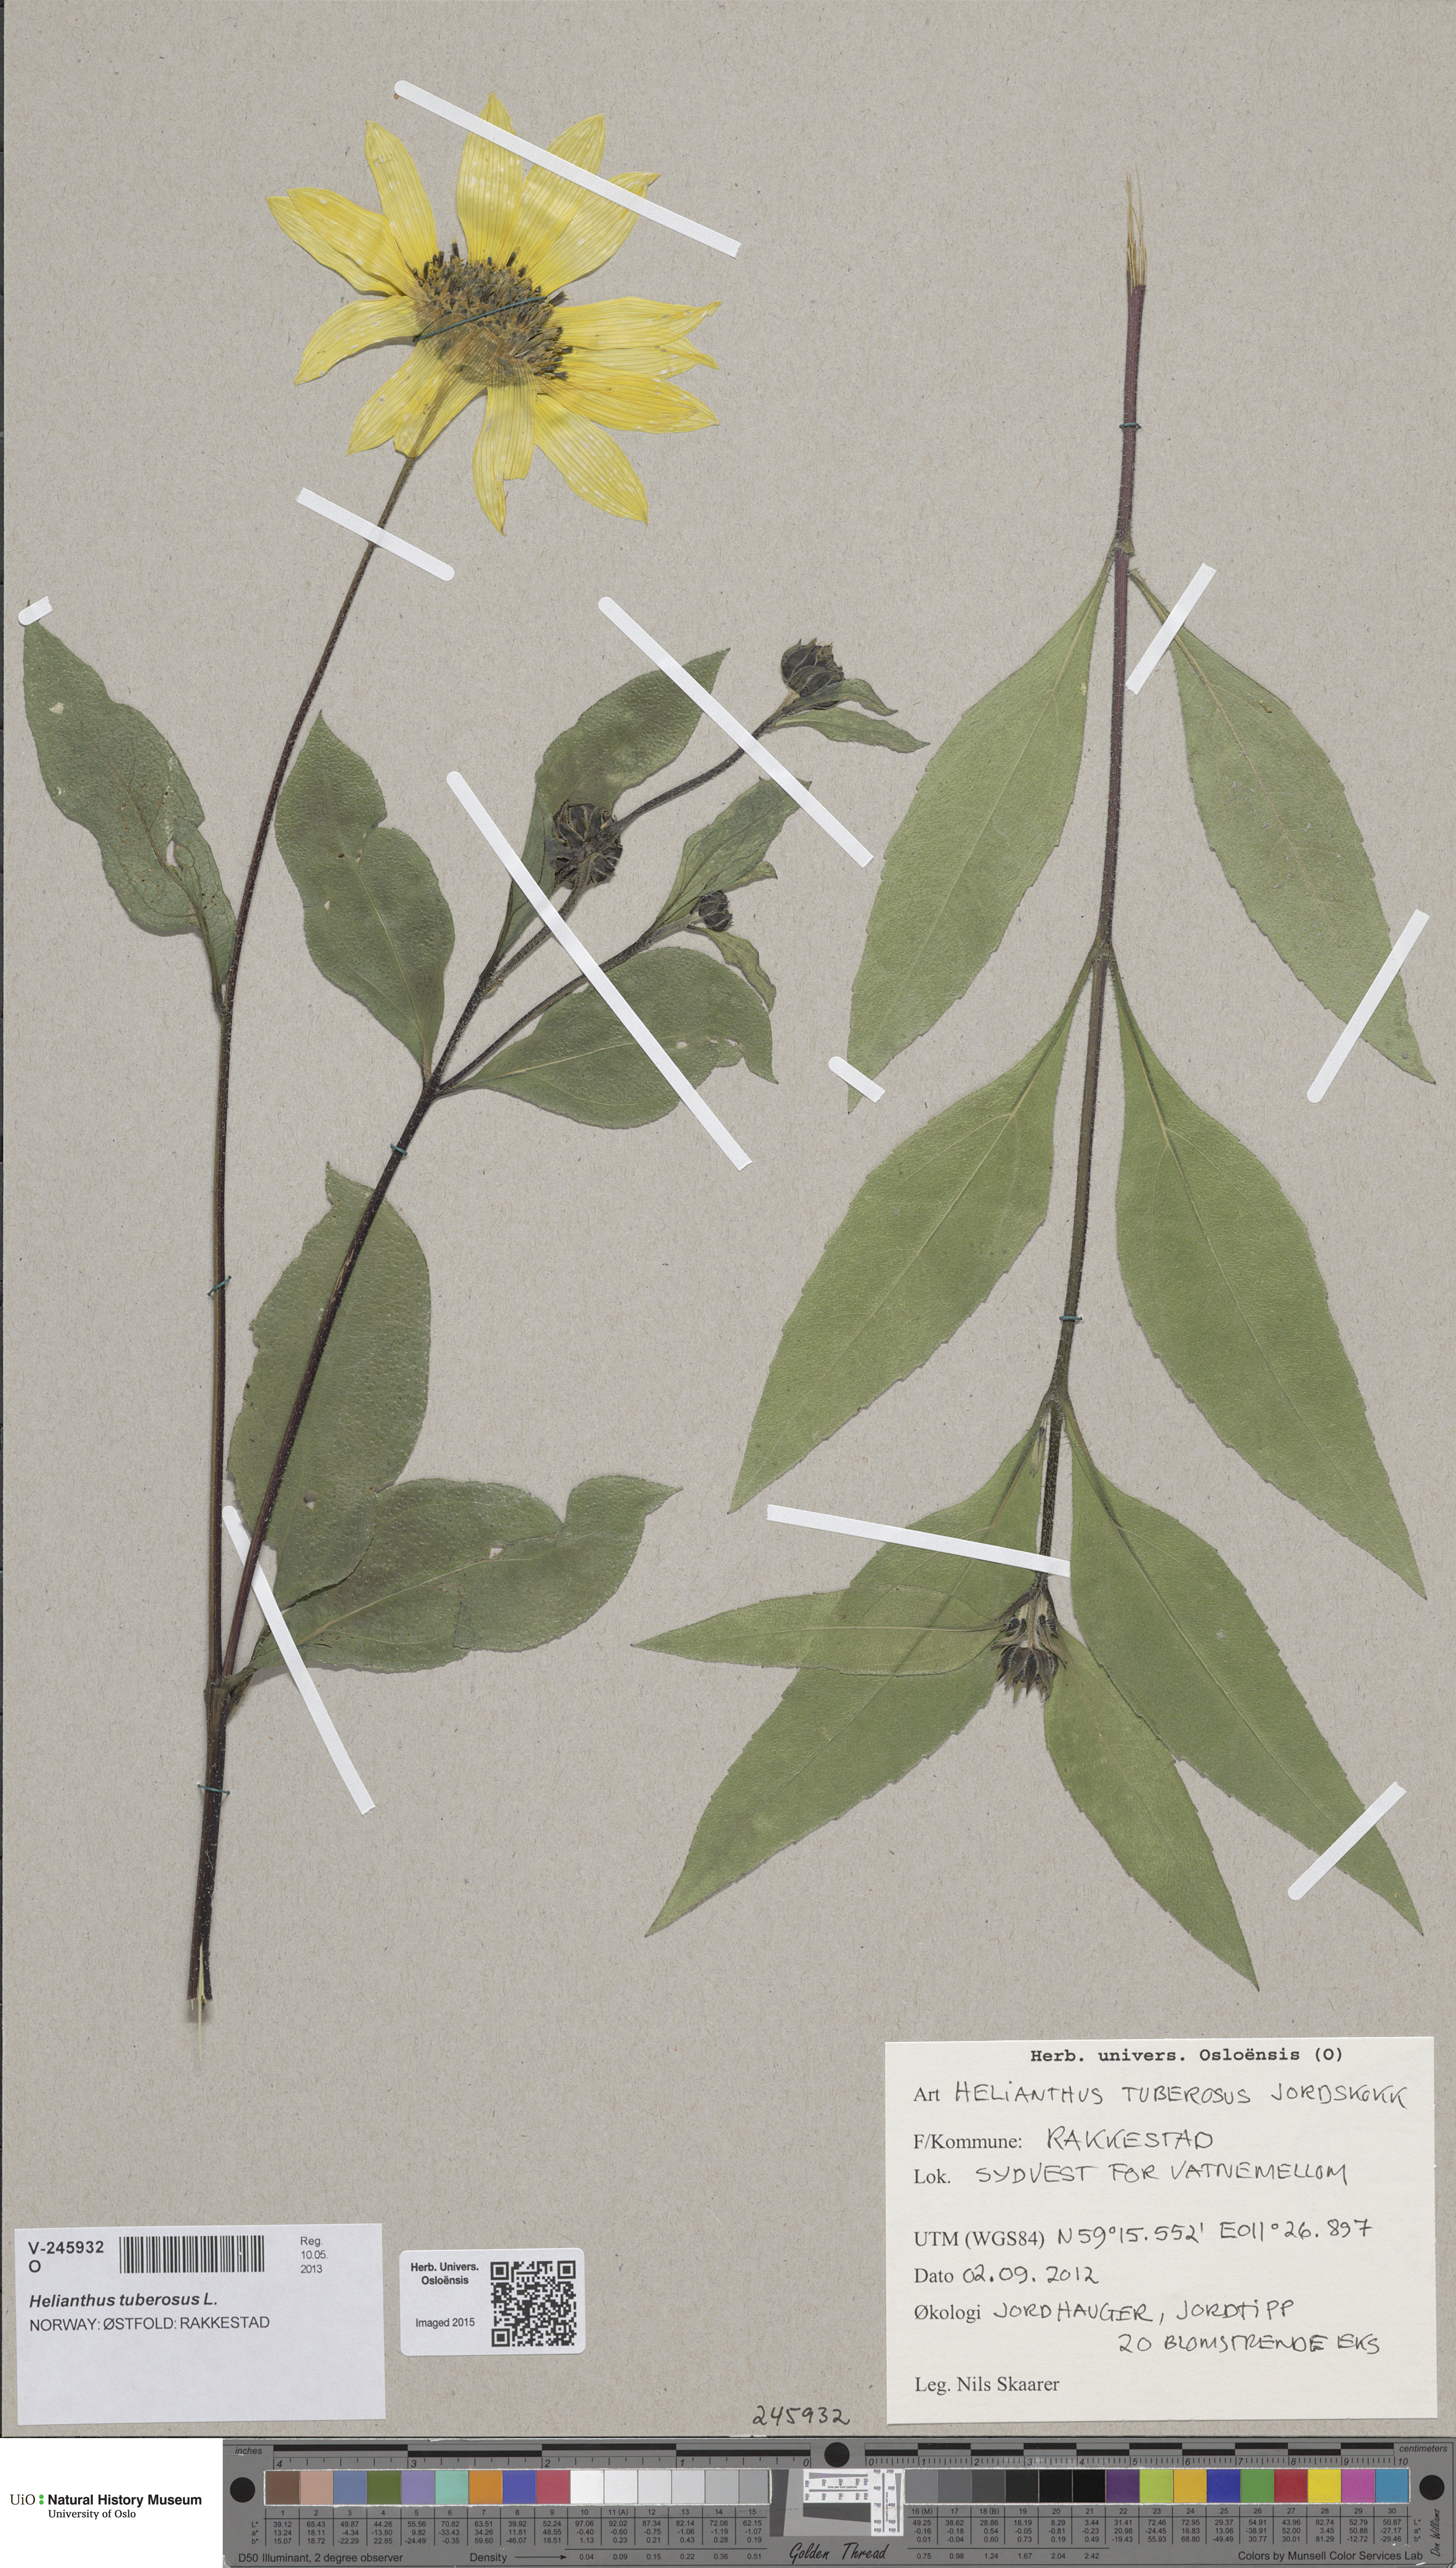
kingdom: Plantae
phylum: Tracheophyta
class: Magnoliopsida
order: Asterales
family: Asteraceae
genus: Helianthus
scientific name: Helianthus laetiflorus
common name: Perennial sunflower
